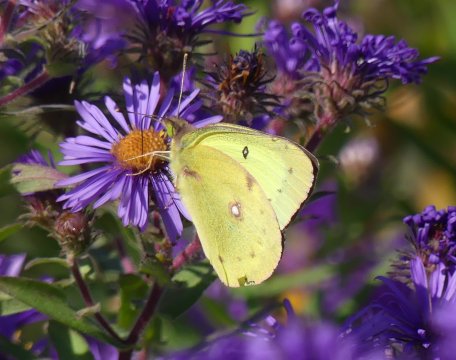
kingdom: Animalia
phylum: Arthropoda
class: Insecta
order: Lepidoptera
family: Pieridae
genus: Colias
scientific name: Colias philodice
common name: Clouded Sulphur
